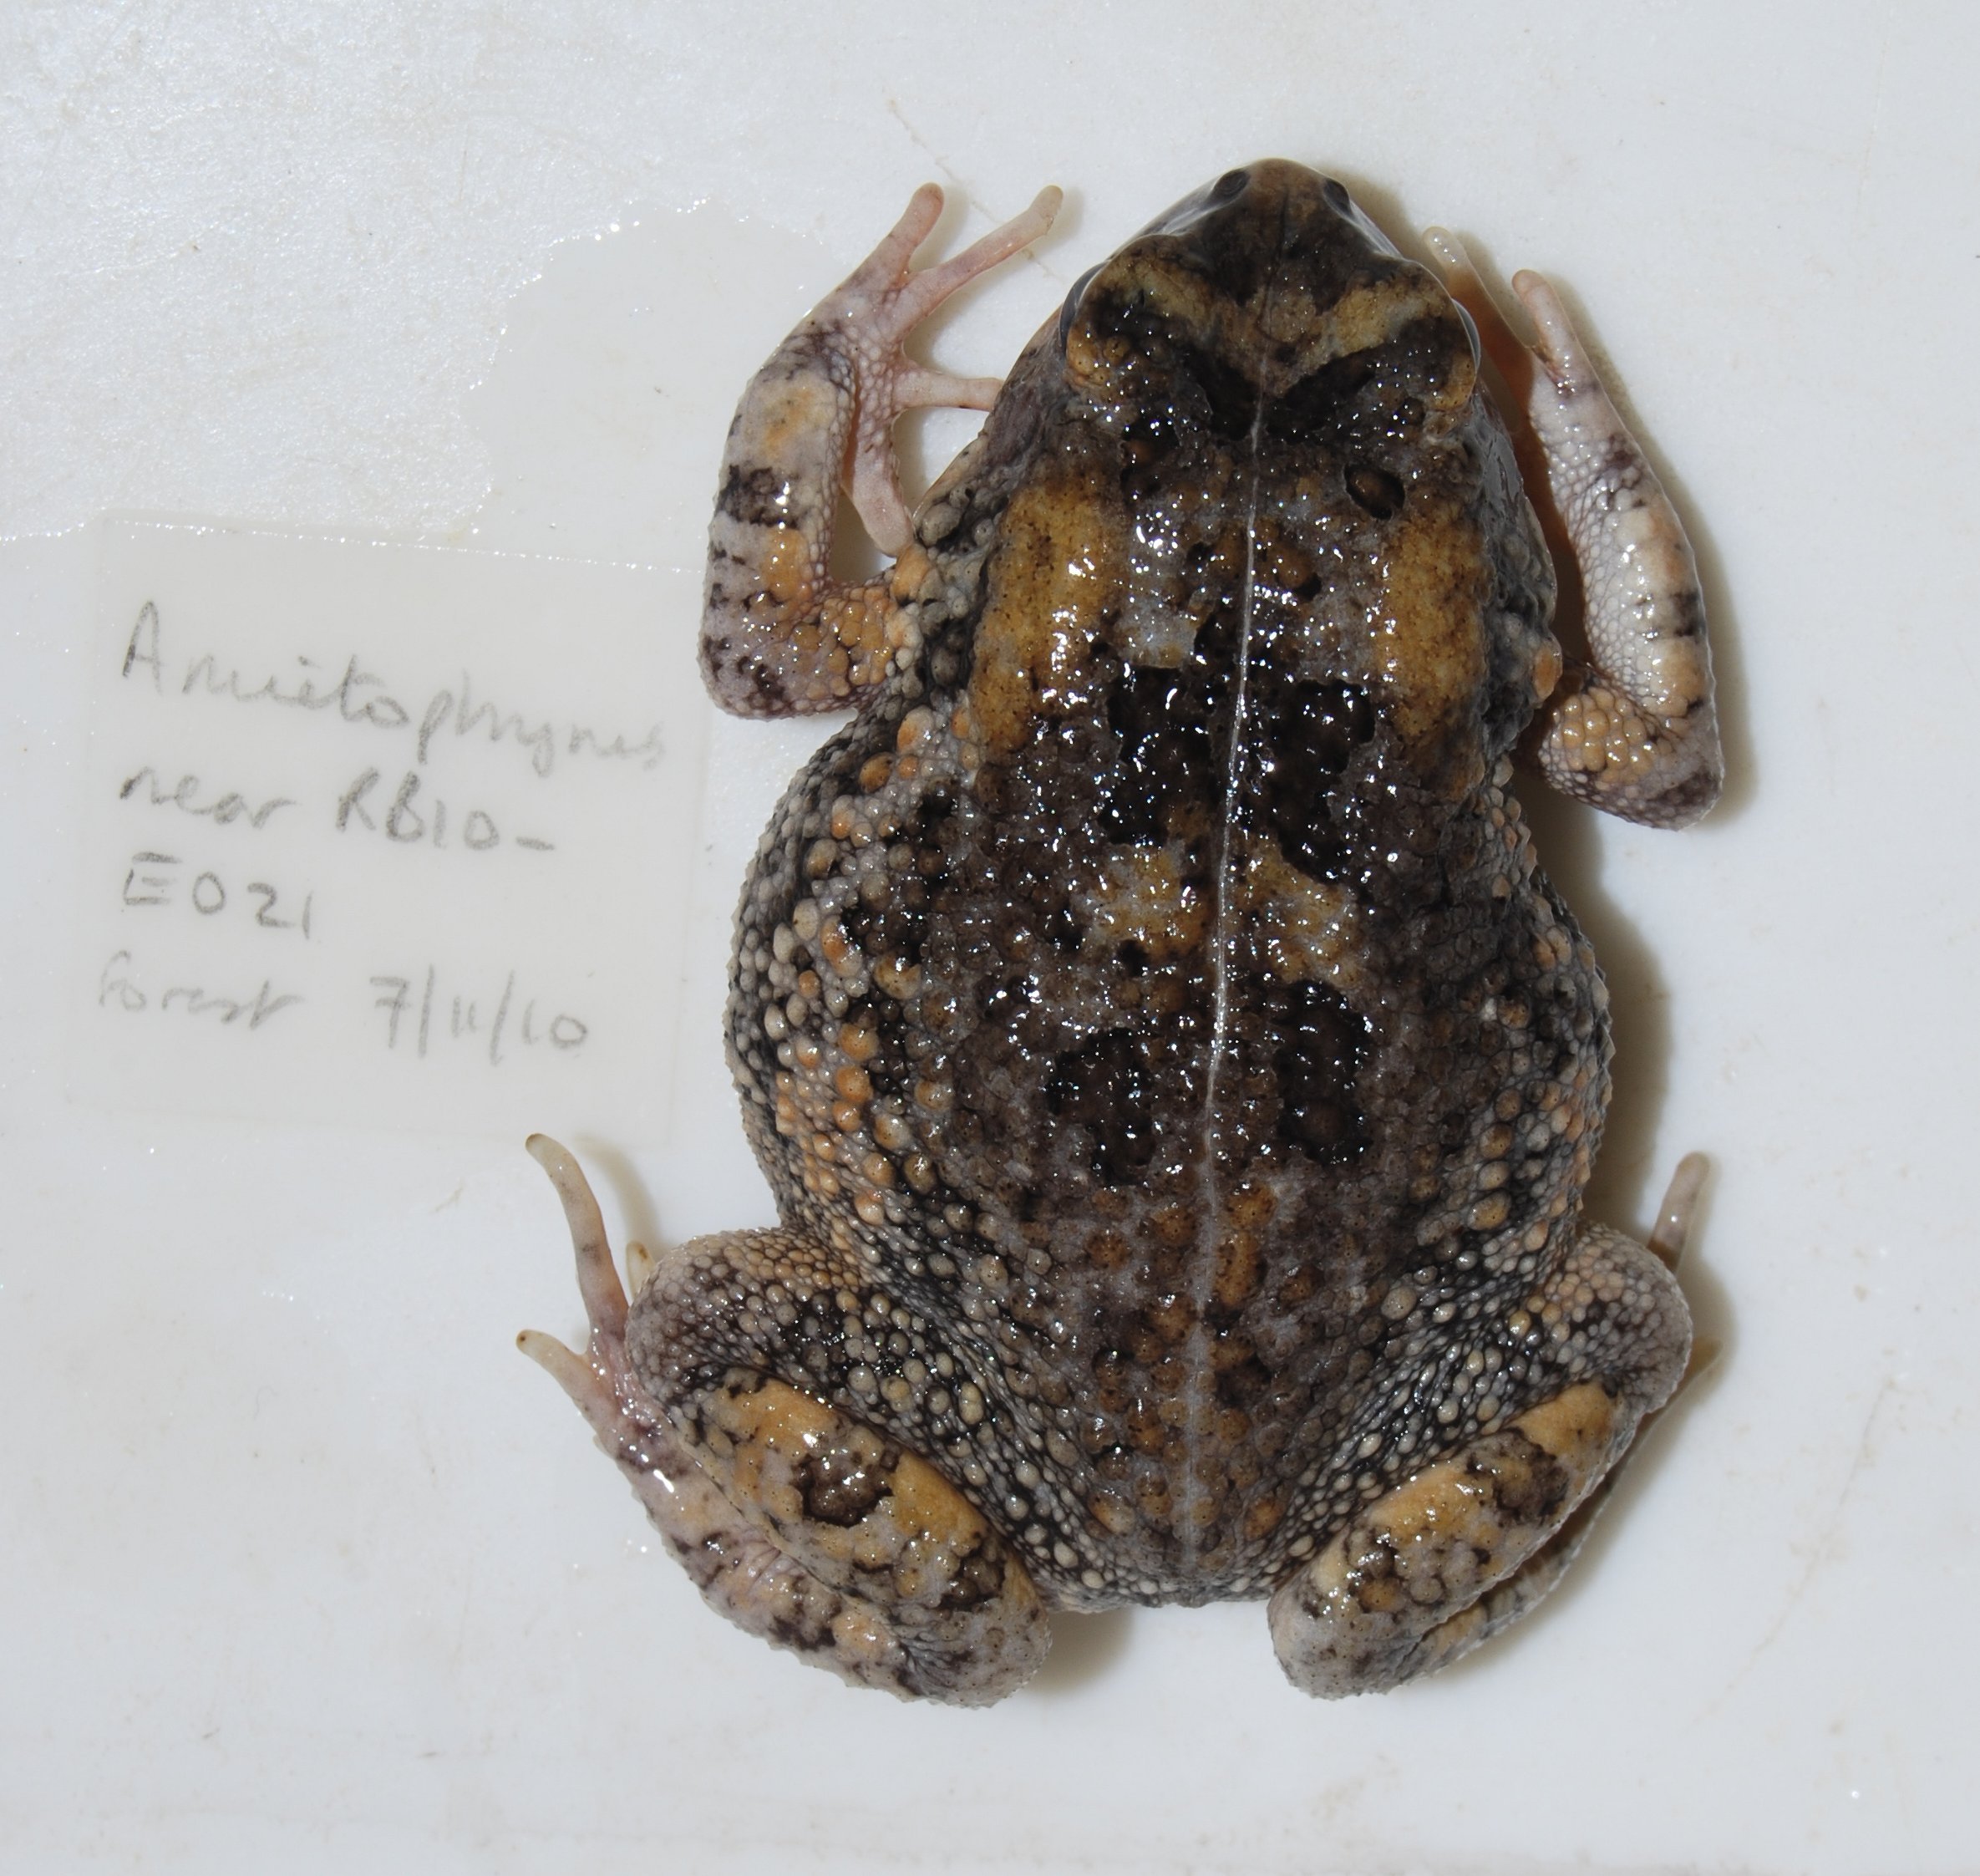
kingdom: Animalia
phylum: Chordata
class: Amphibia
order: Anura
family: Bufonidae
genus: Sclerophrys
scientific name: Sclerophrys gutturalis
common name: African common toad
